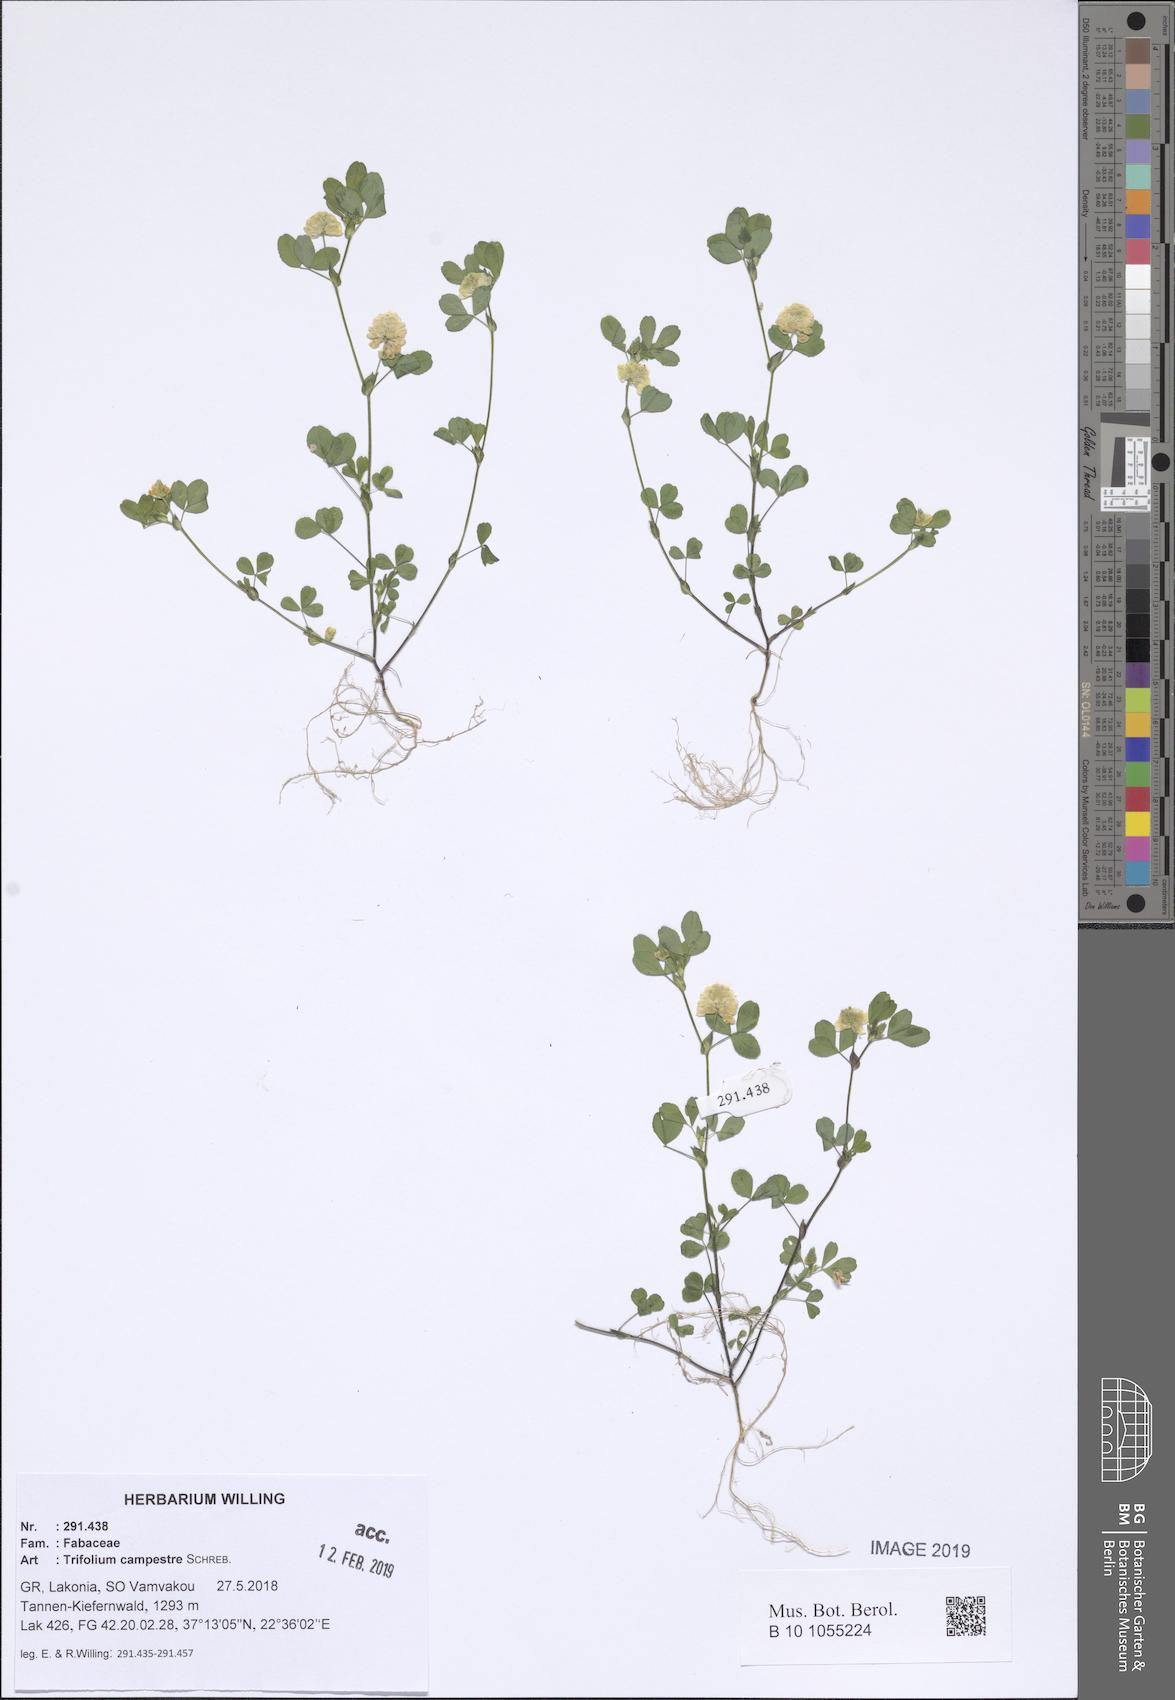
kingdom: Plantae
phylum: Tracheophyta
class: Magnoliopsida
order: Fabales
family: Fabaceae
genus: Trifolium
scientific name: Trifolium campestre
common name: Field clover
